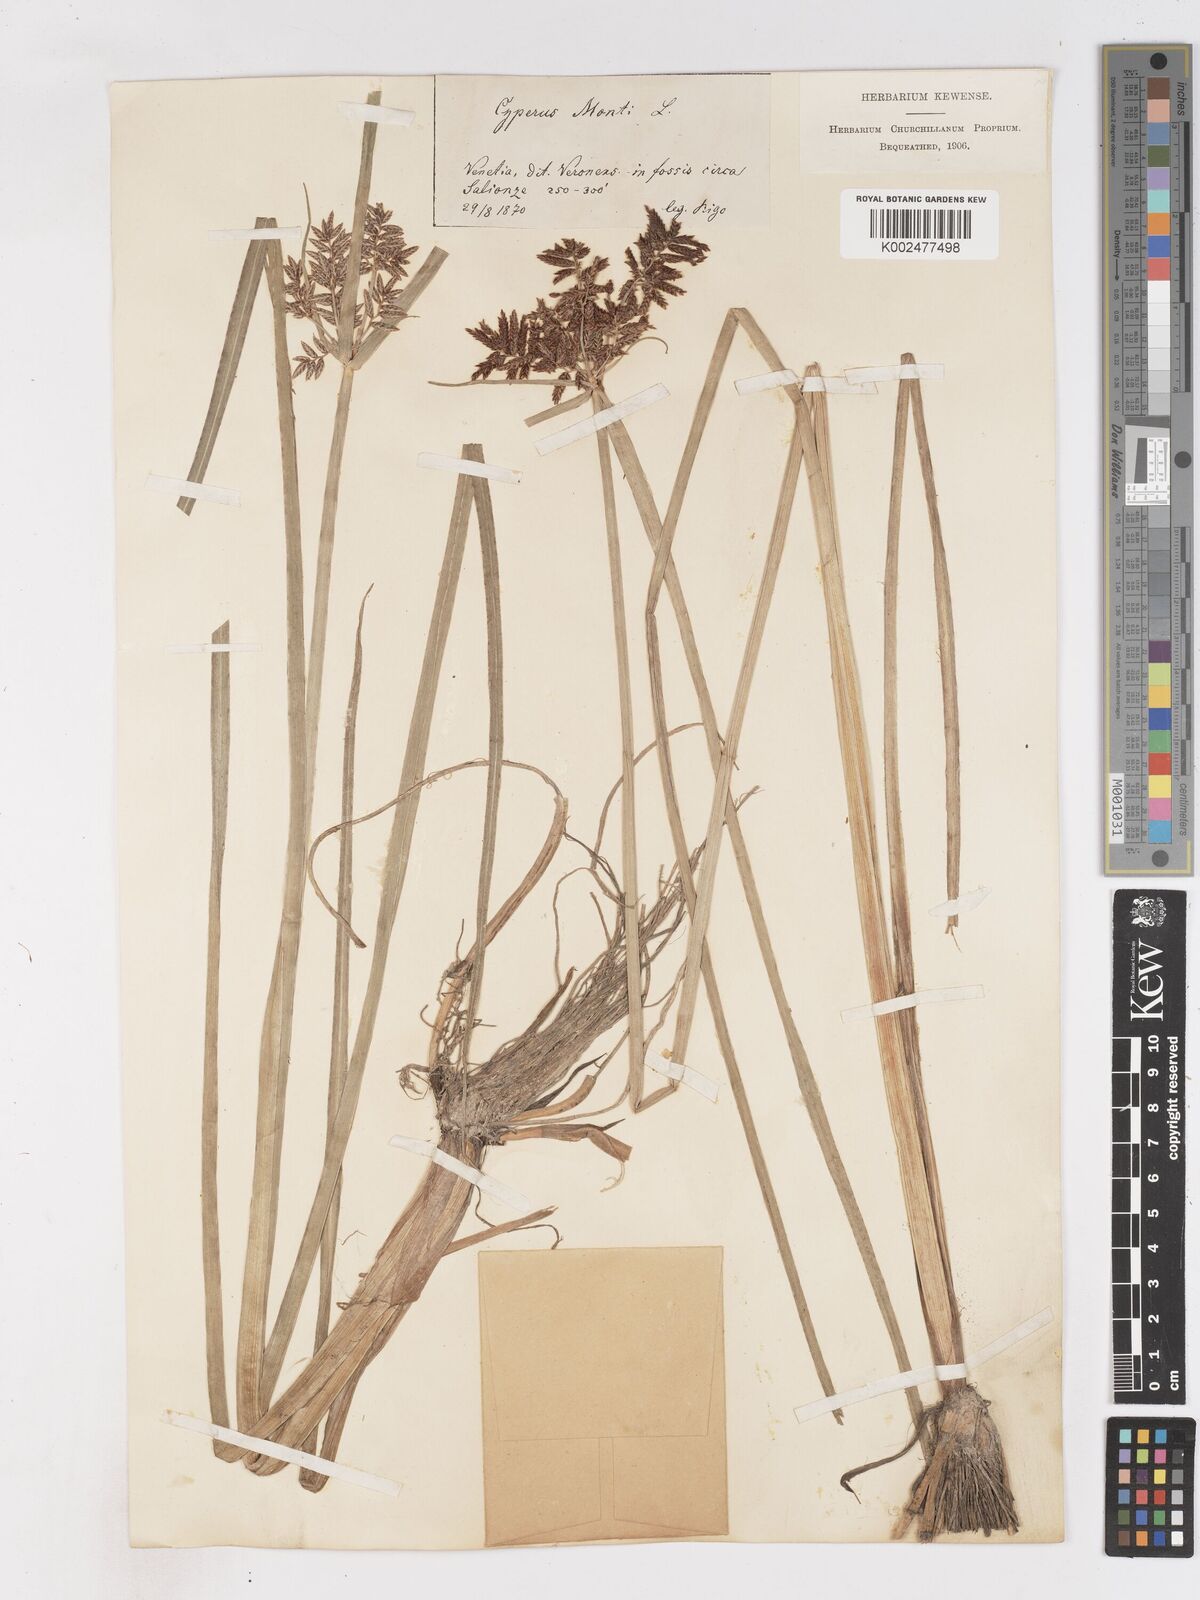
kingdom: Plantae
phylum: Tracheophyta
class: Liliopsida
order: Poales
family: Cyperaceae
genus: Cyperus
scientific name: Cyperus serotinus
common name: Tidalmarsh flatsedge
